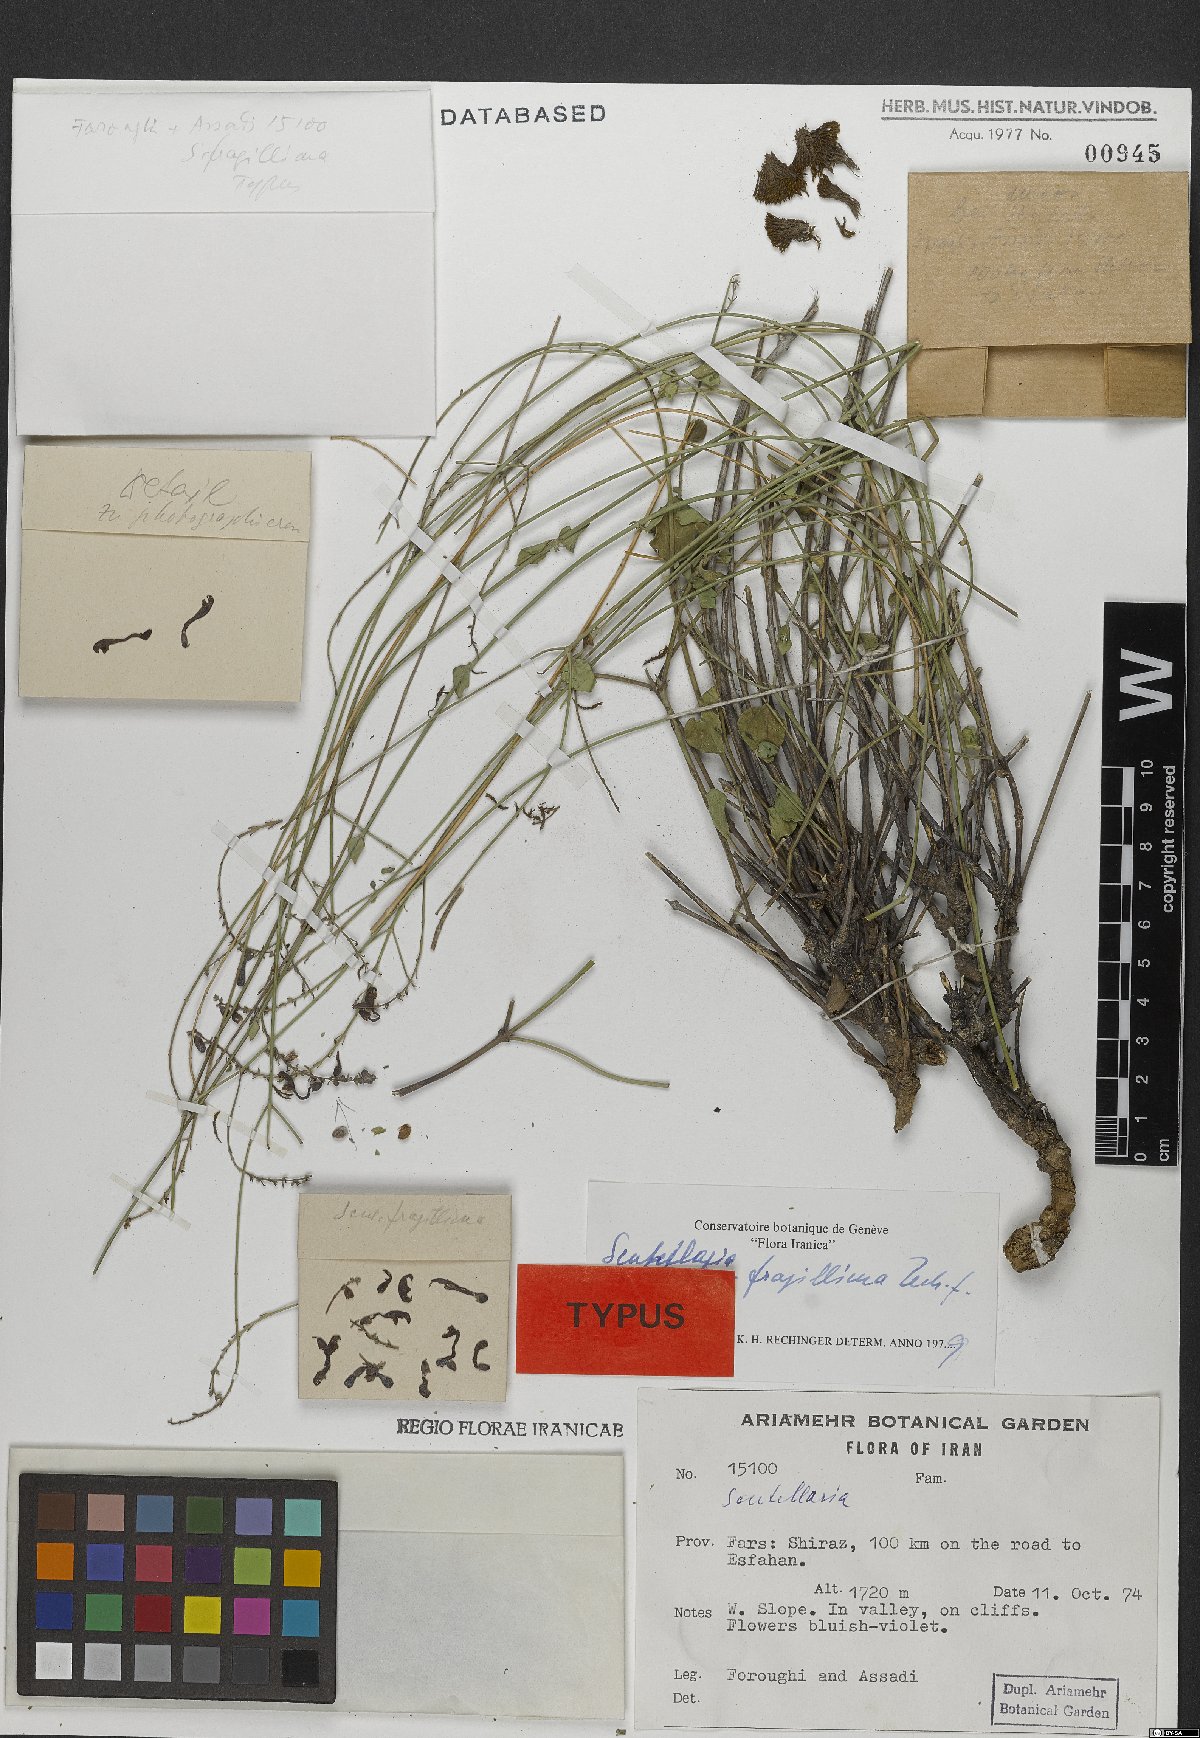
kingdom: Plantae
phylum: Tracheophyta
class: Magnoliopsida
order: Lamiales
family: Lamiaceae
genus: Scutellaria
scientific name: Scutellaria fragillima
